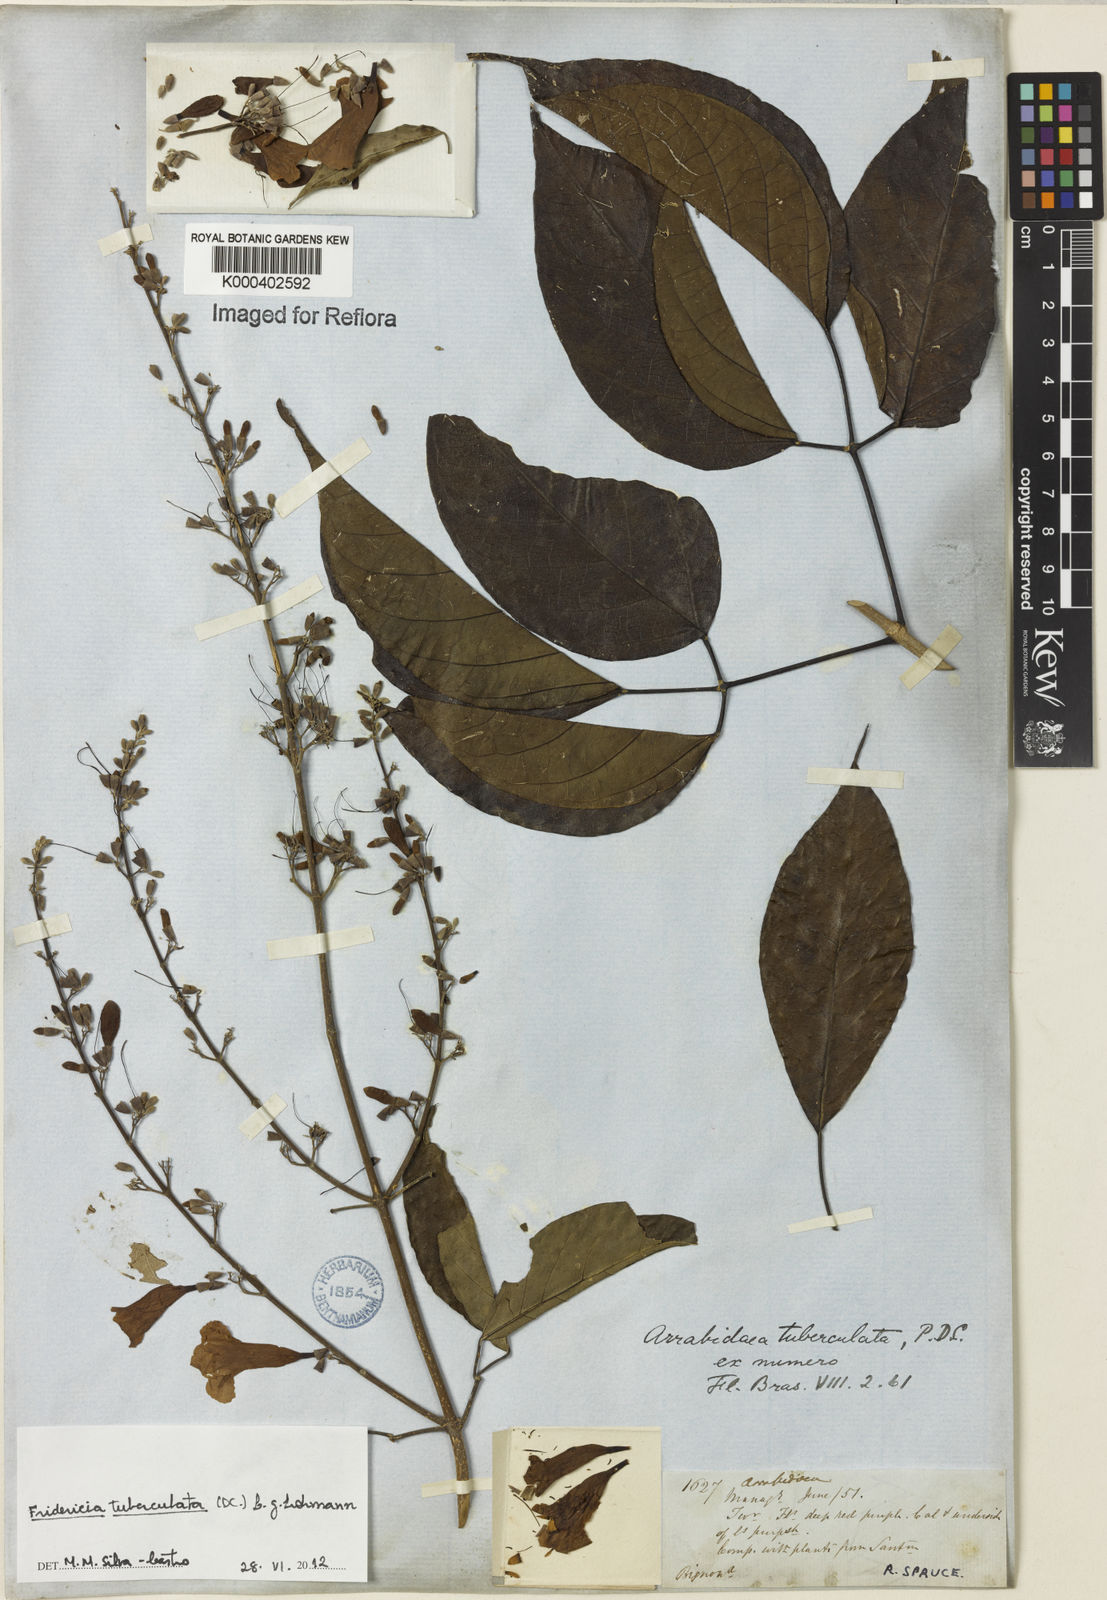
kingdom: Plantae
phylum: Tracheophyta
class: Magnoliopsida
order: Lamiales
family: Bignoniaceae
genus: Fridericia
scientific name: Fridericia tuberculata
